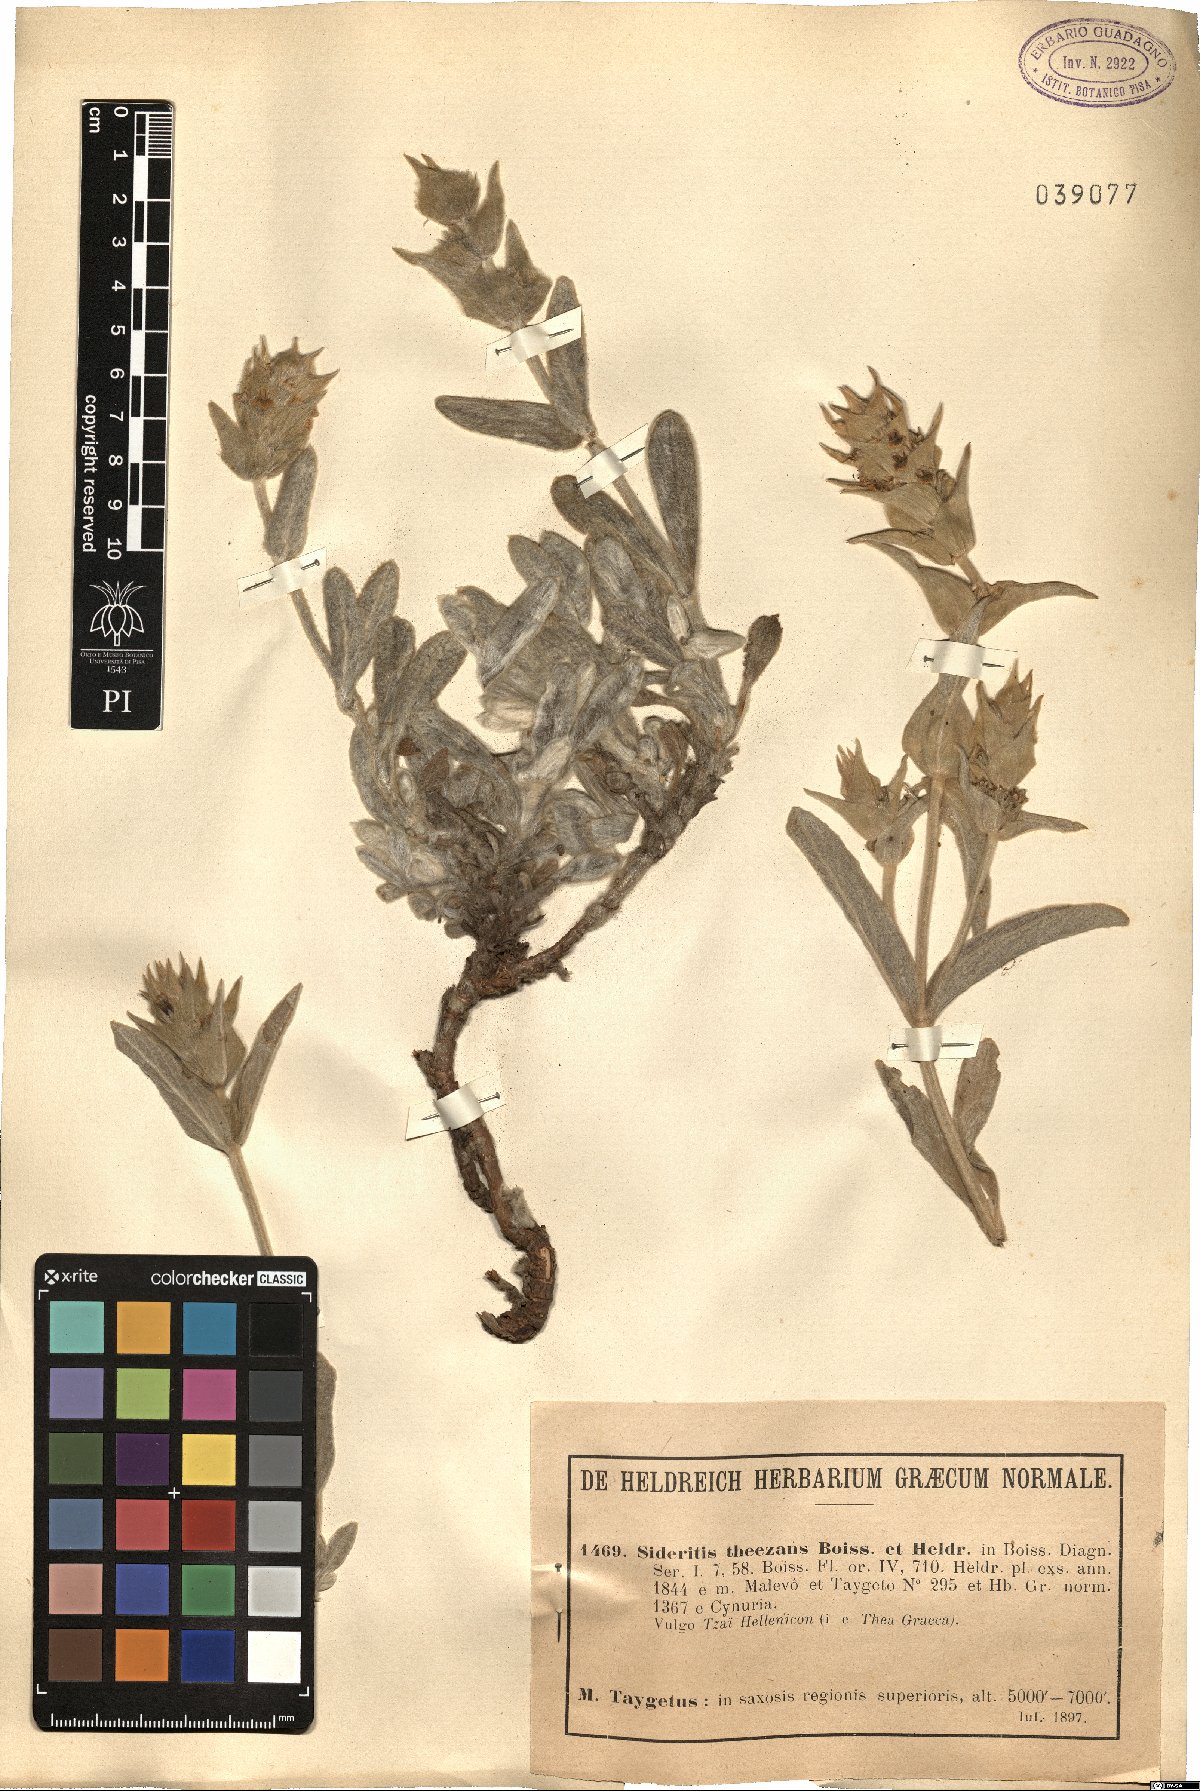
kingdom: Plantae
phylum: Tracheophyta
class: Magnoliopsida
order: Lamiales
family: Lamiaceae
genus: Sideritis
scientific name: Sideritis clandestina
